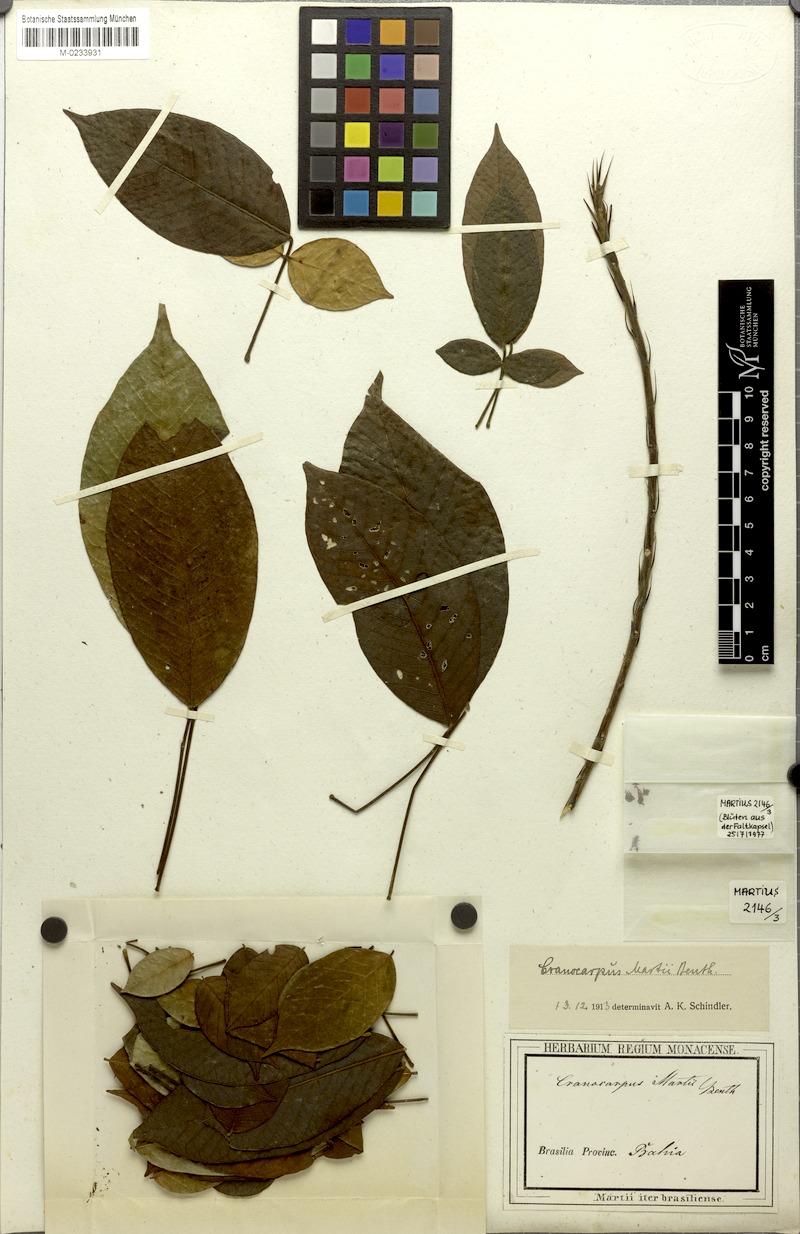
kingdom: Plantae
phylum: Tracheophyta
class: Magnoliopsida
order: Fabales
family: Fabaceae
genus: Cranocarpus
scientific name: Cranocarpus martii
